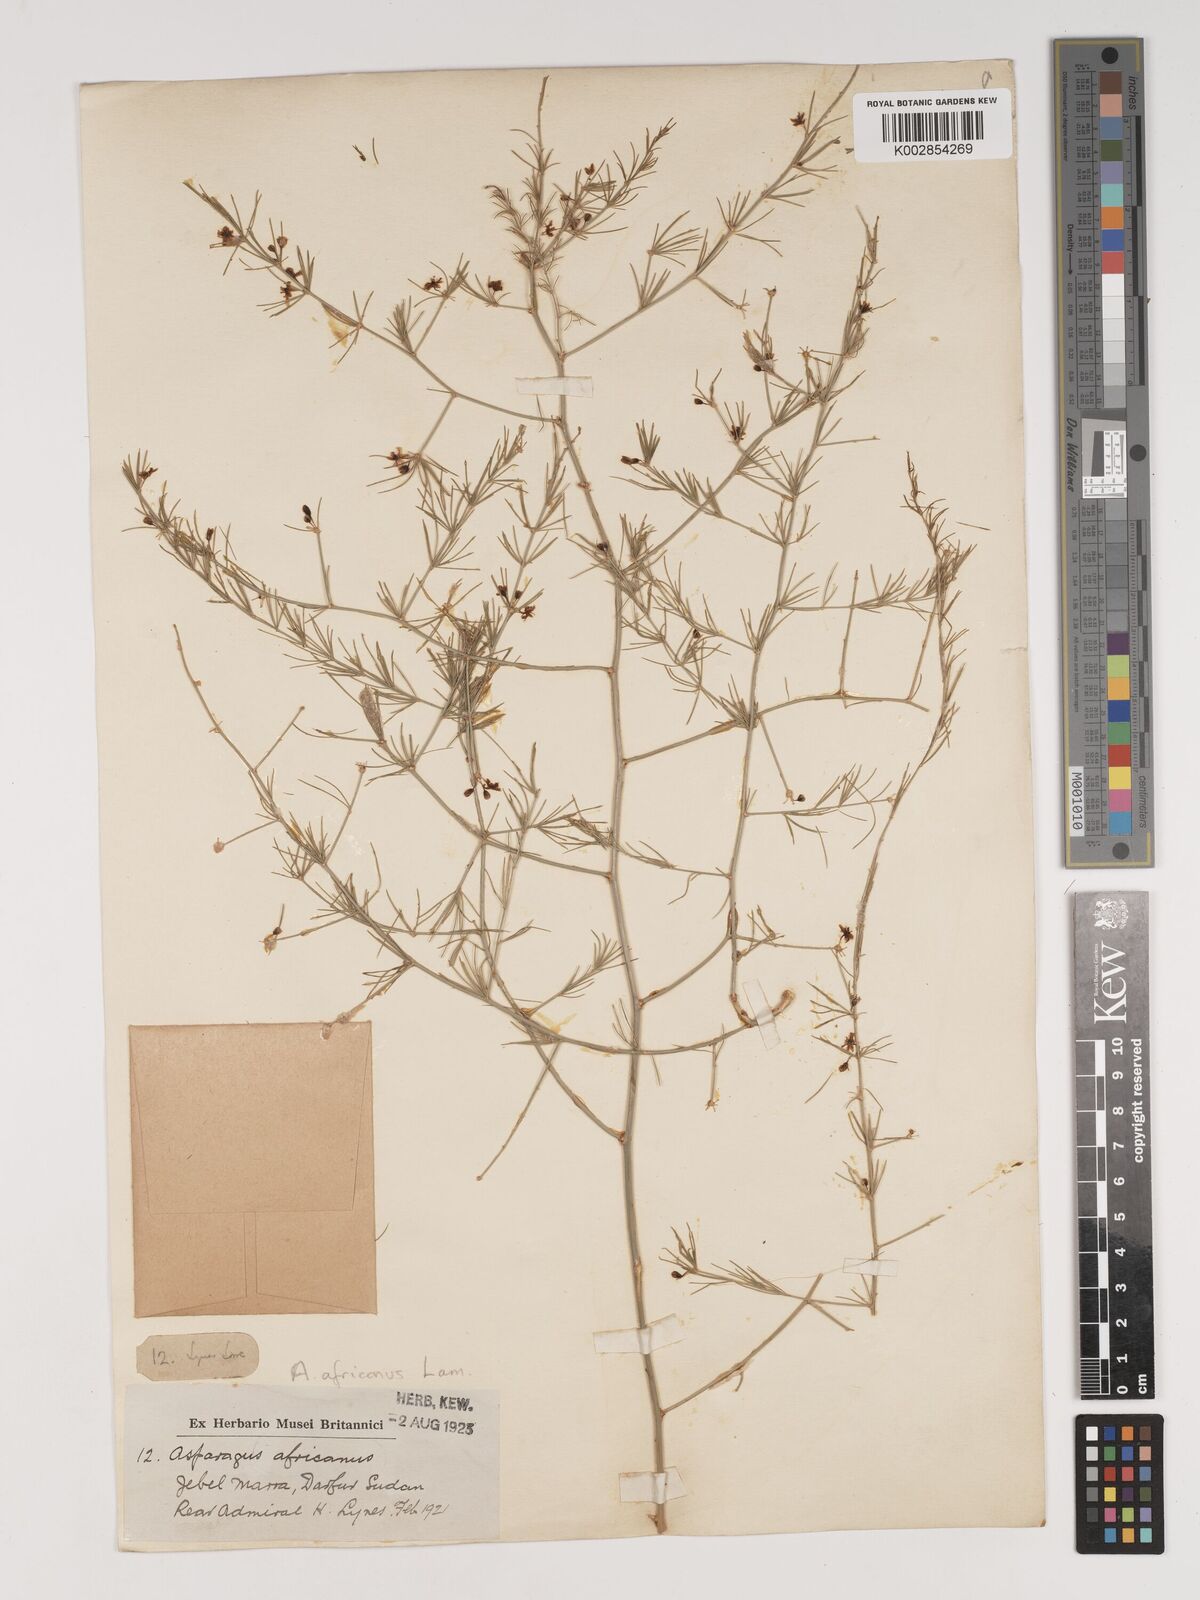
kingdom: Plantae
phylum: Tracheophyta
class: Liliopsida
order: Asparagales
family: Asparagaceae
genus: Asparagus
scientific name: Asparagus africanus
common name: Asparagus-fern
